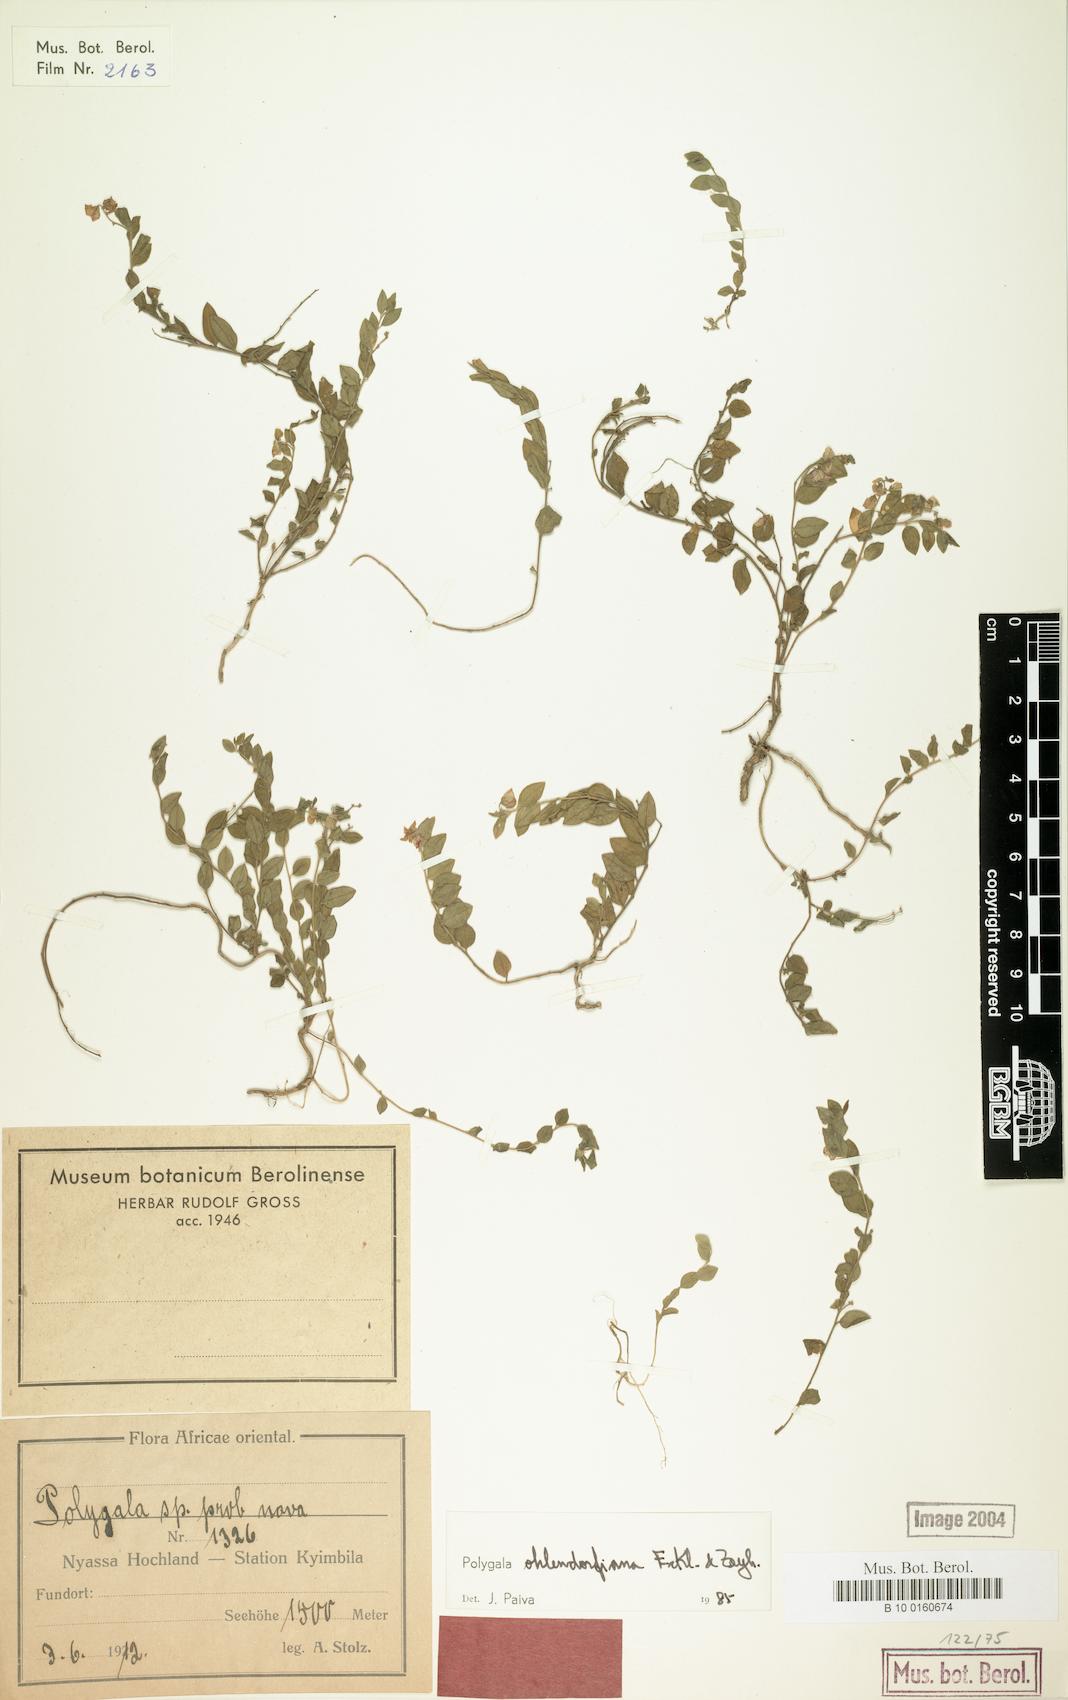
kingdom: Plantae
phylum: Tracheophyta
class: Magnoliopsida
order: Fabales
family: Polygalaceae
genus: Polygala
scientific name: Polygala ohlendorfiana
